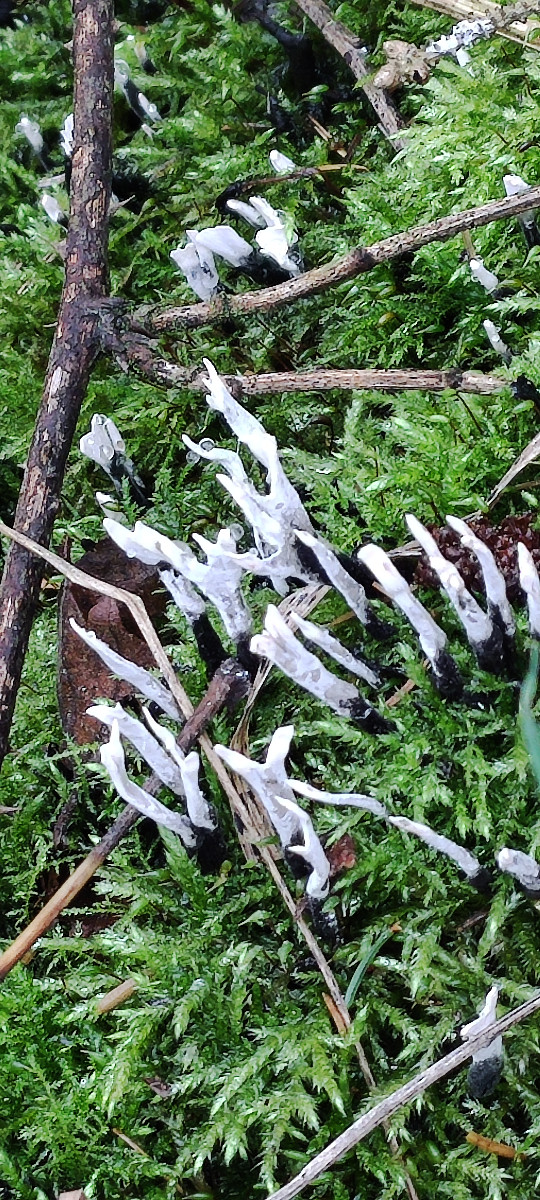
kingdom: Fungi
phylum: Ascomycota
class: Sordariomycetes
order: Xylariales
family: Xylariaceae
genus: Xylaria
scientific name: Xylaria hypoxylon
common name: grenet stødsvamp
